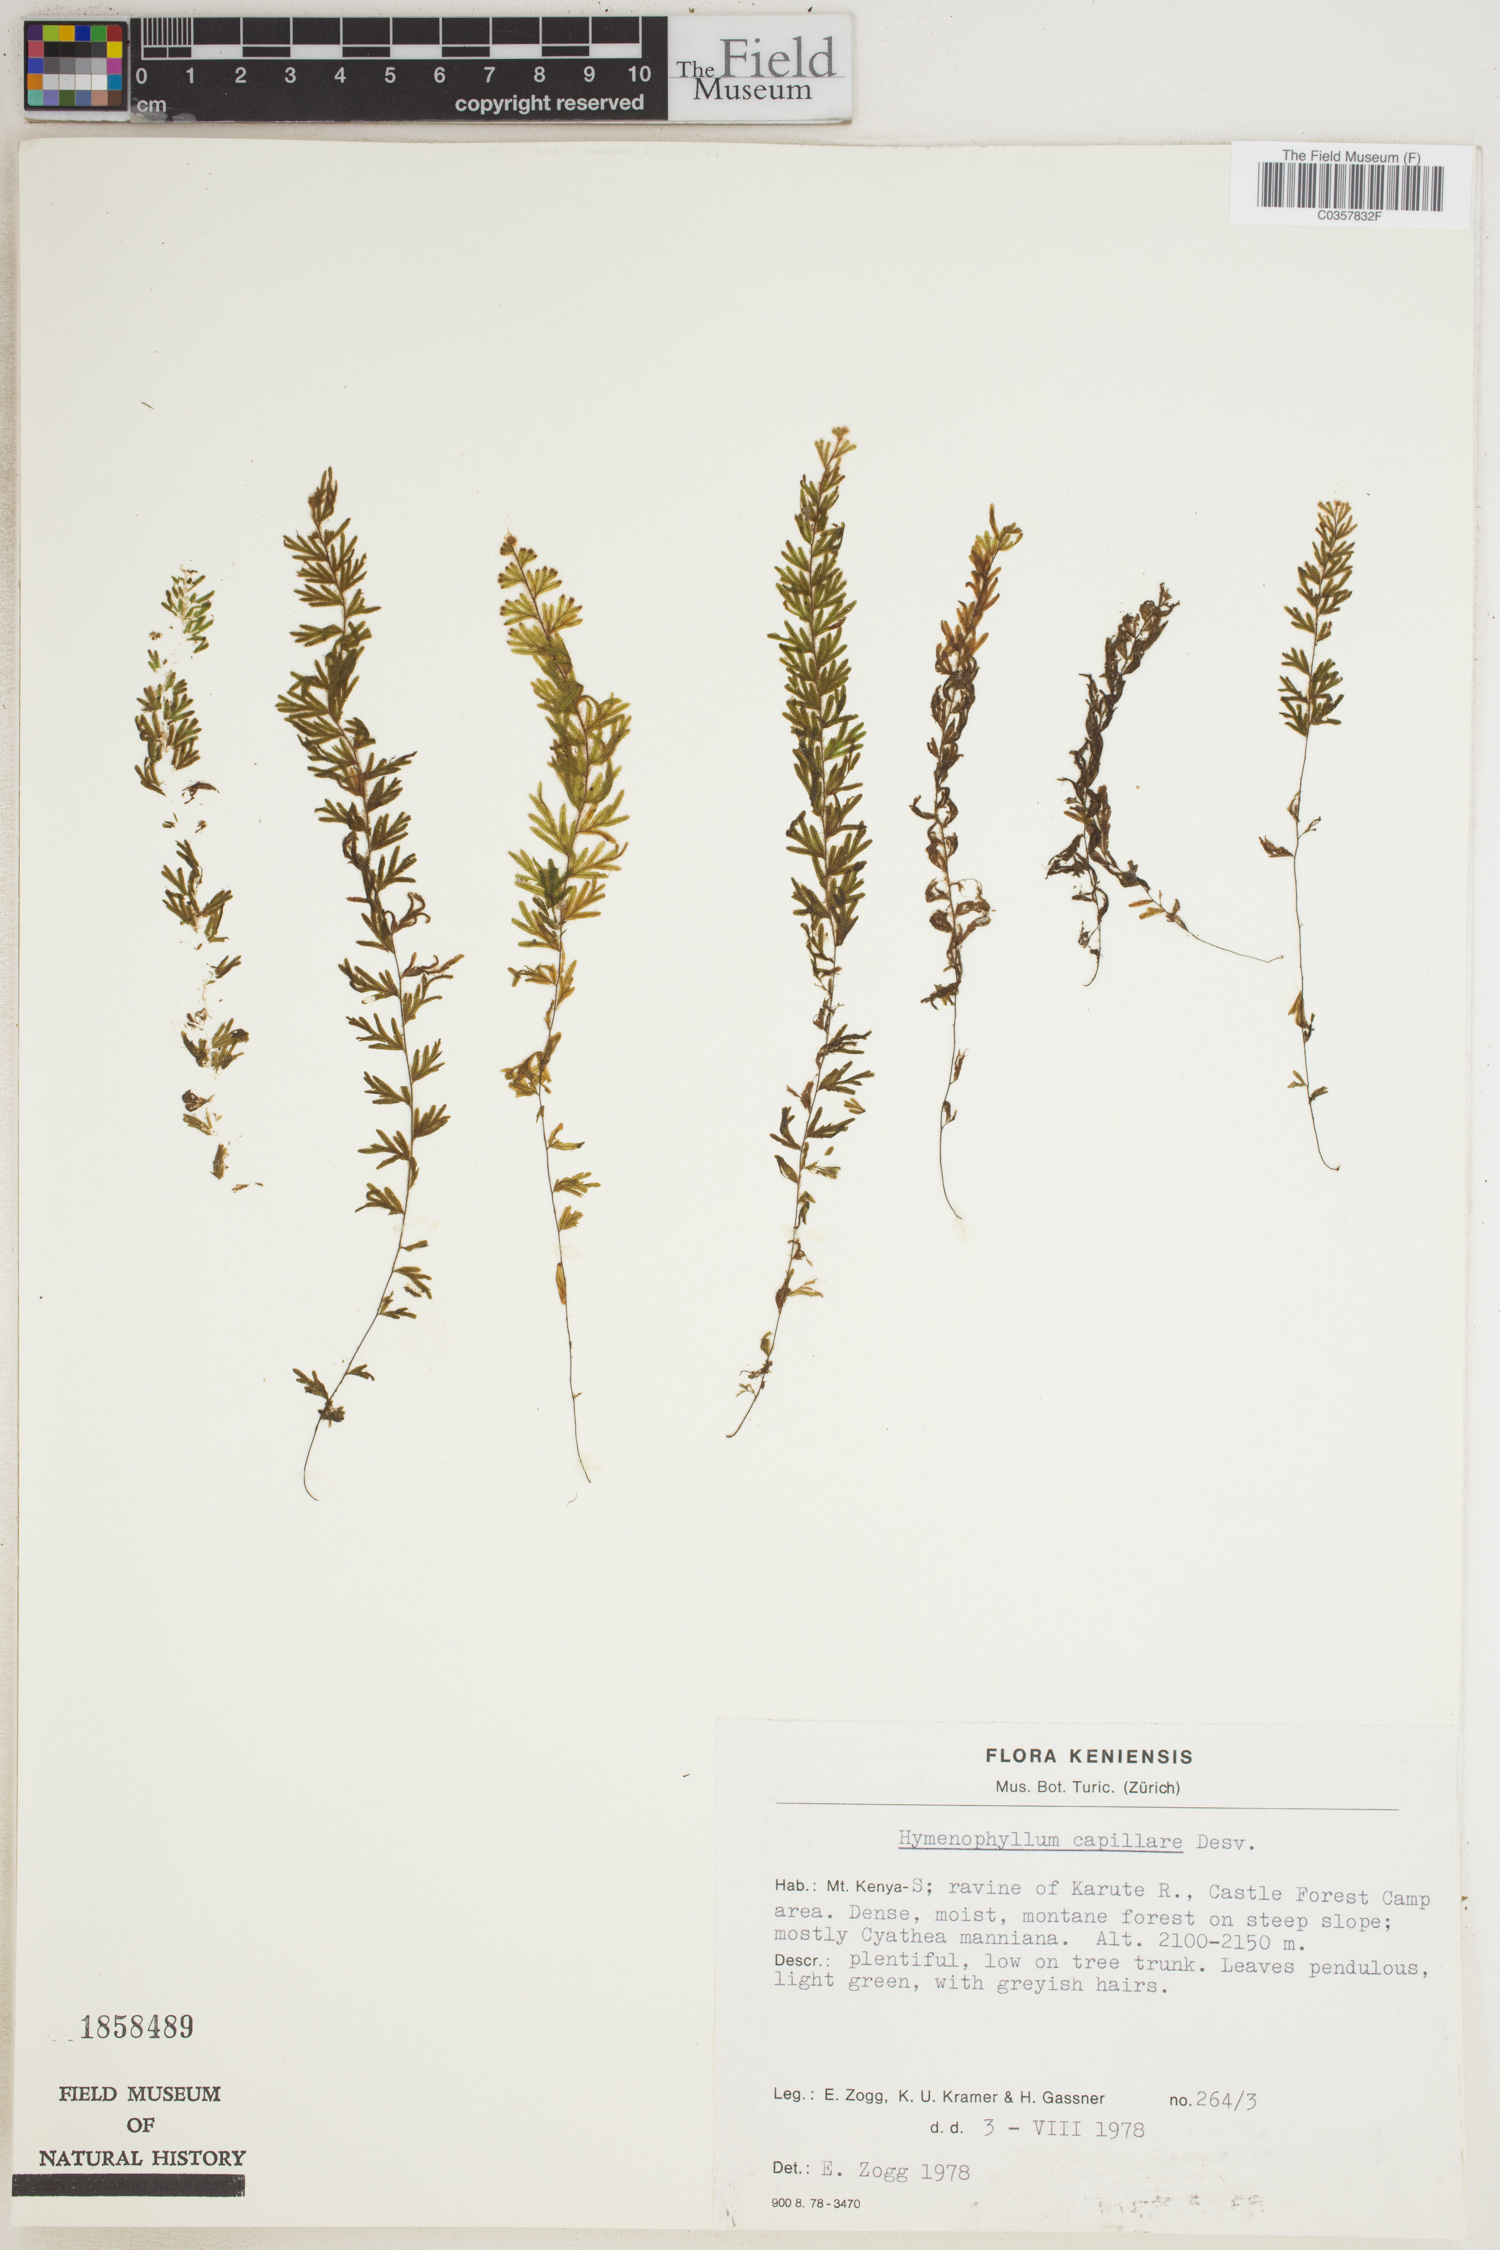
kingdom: Plantae
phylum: Tracheophyta
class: Polypodiopsida
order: Hymenophyllales
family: Hymenophyllaceae
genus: Hymenophyllum
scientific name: Hymenophyllum capillare
